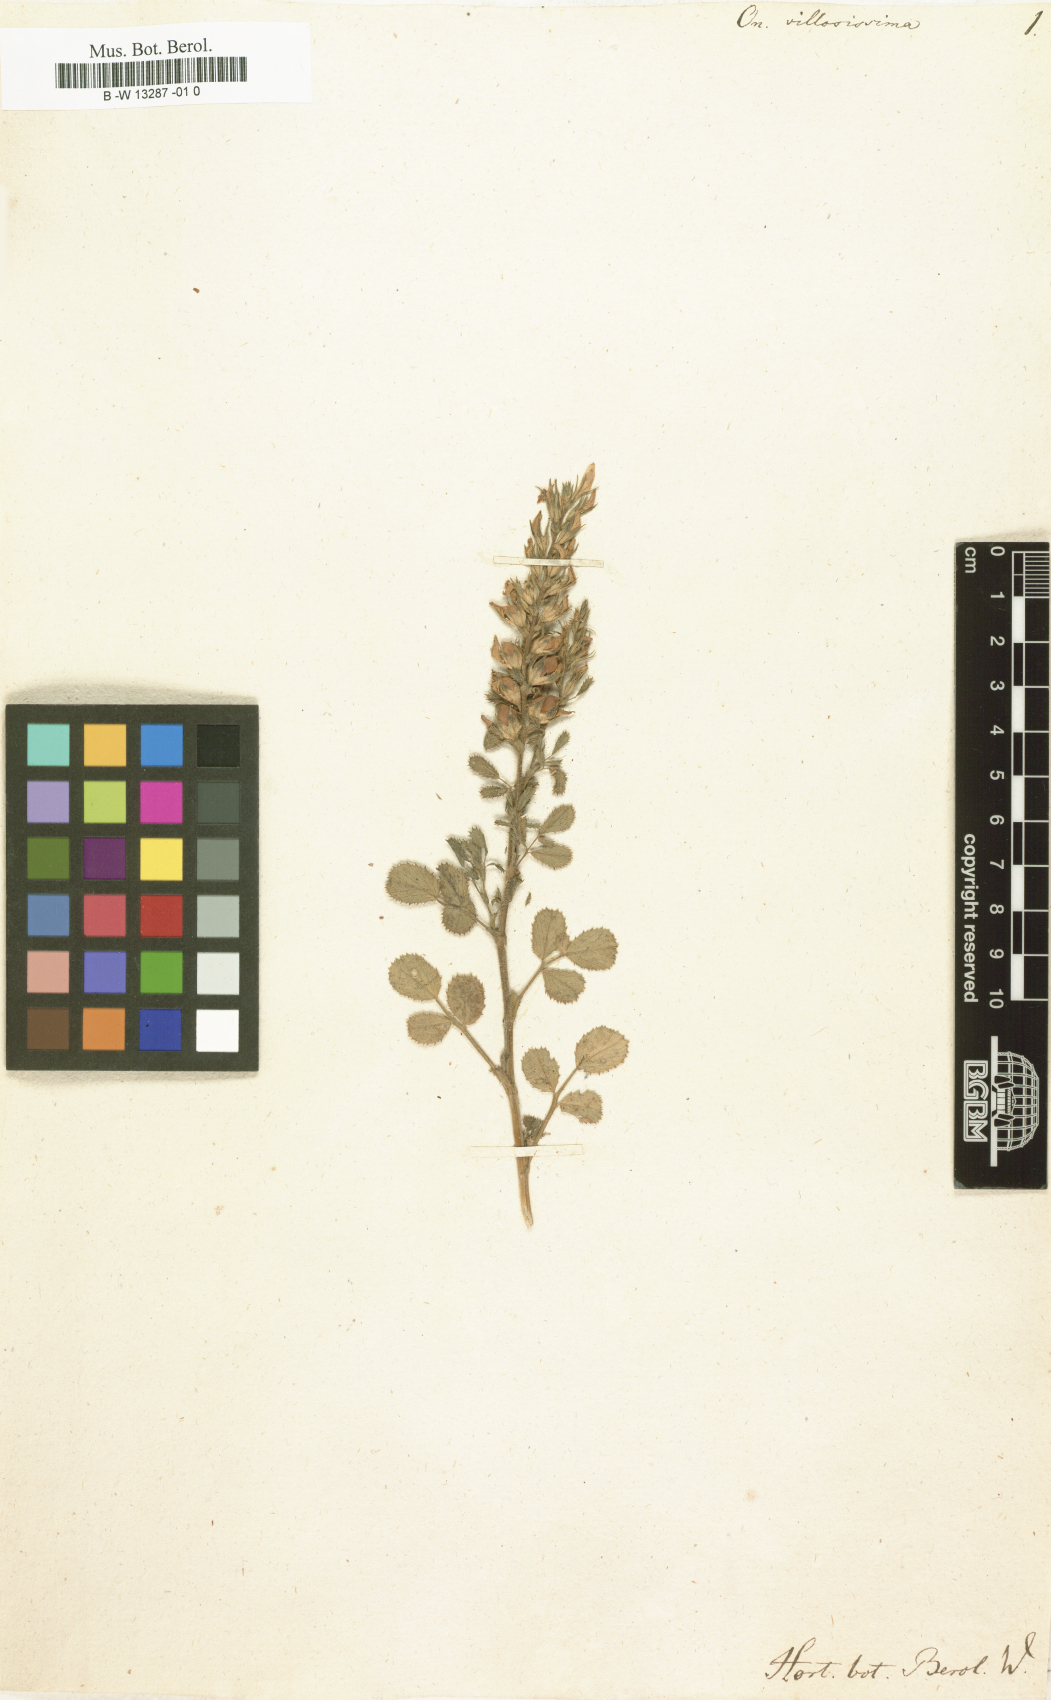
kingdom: Plantae
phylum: Tracheophyta
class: Magnoliopsida
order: Fabales
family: Fabaceae
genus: Ononis
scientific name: Ononis villosissima
